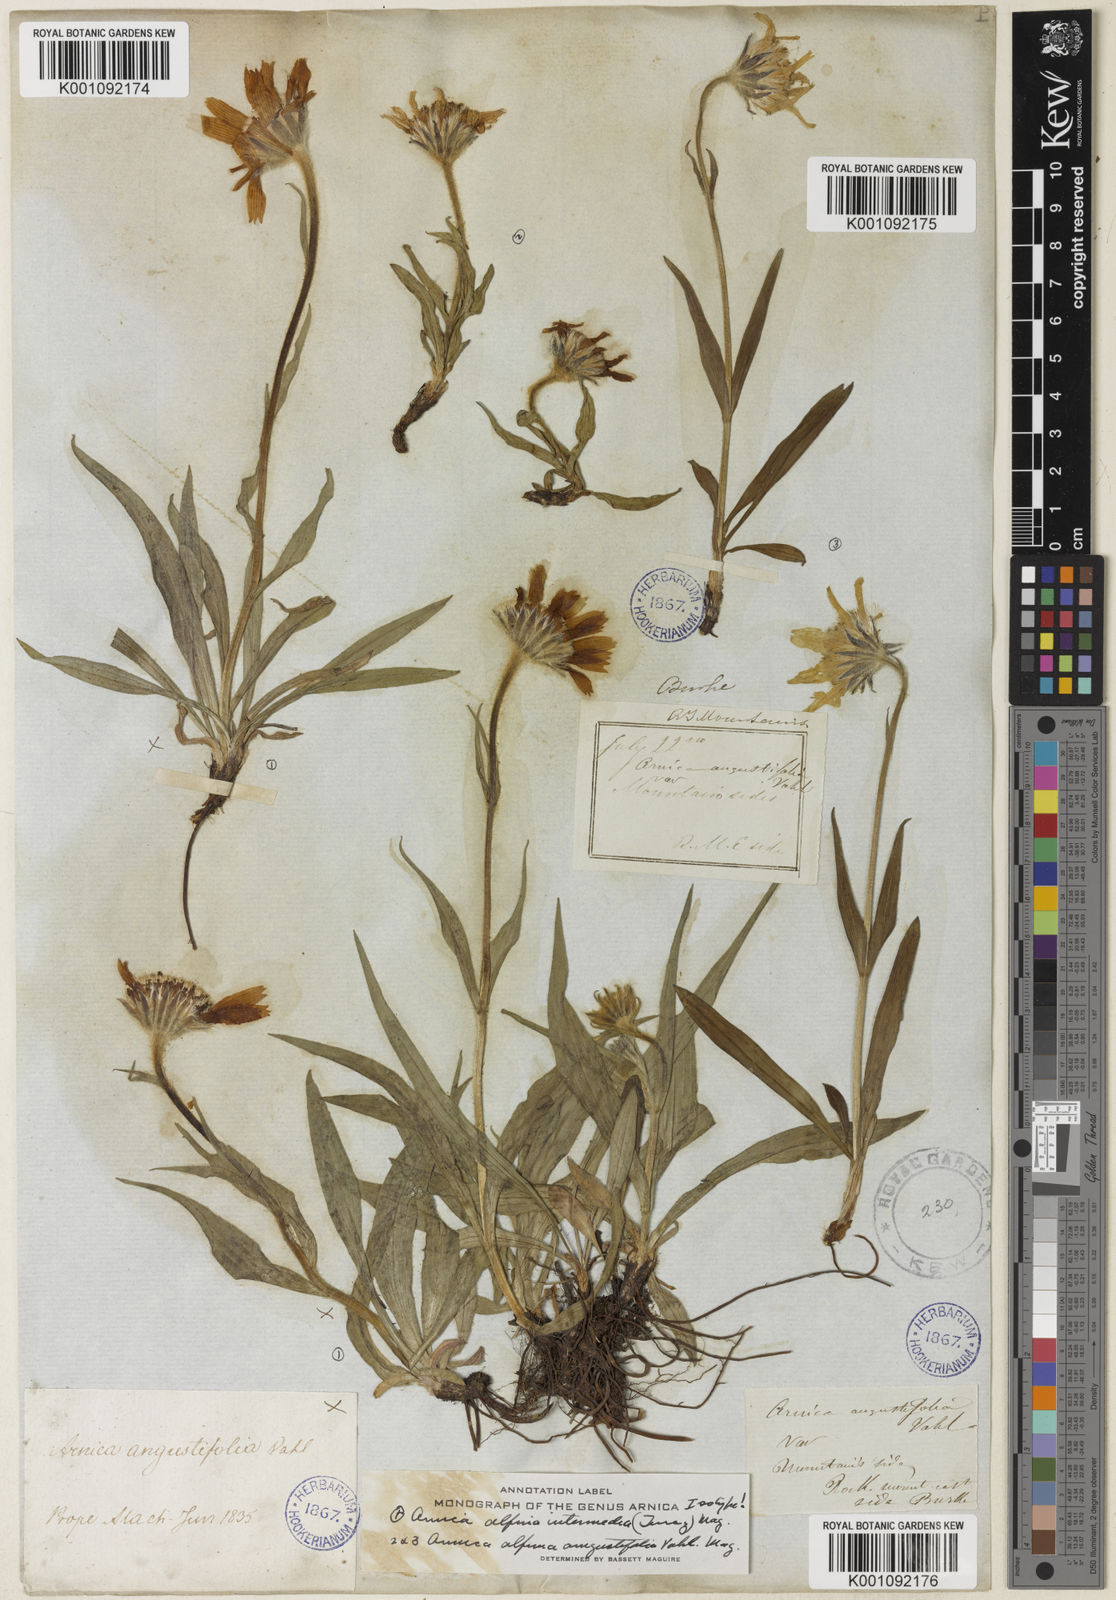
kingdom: Plantae
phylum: Tracheophyta
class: Magnoliopsida
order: Asterales
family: Asteraceae
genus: Arnica
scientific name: Arnica
